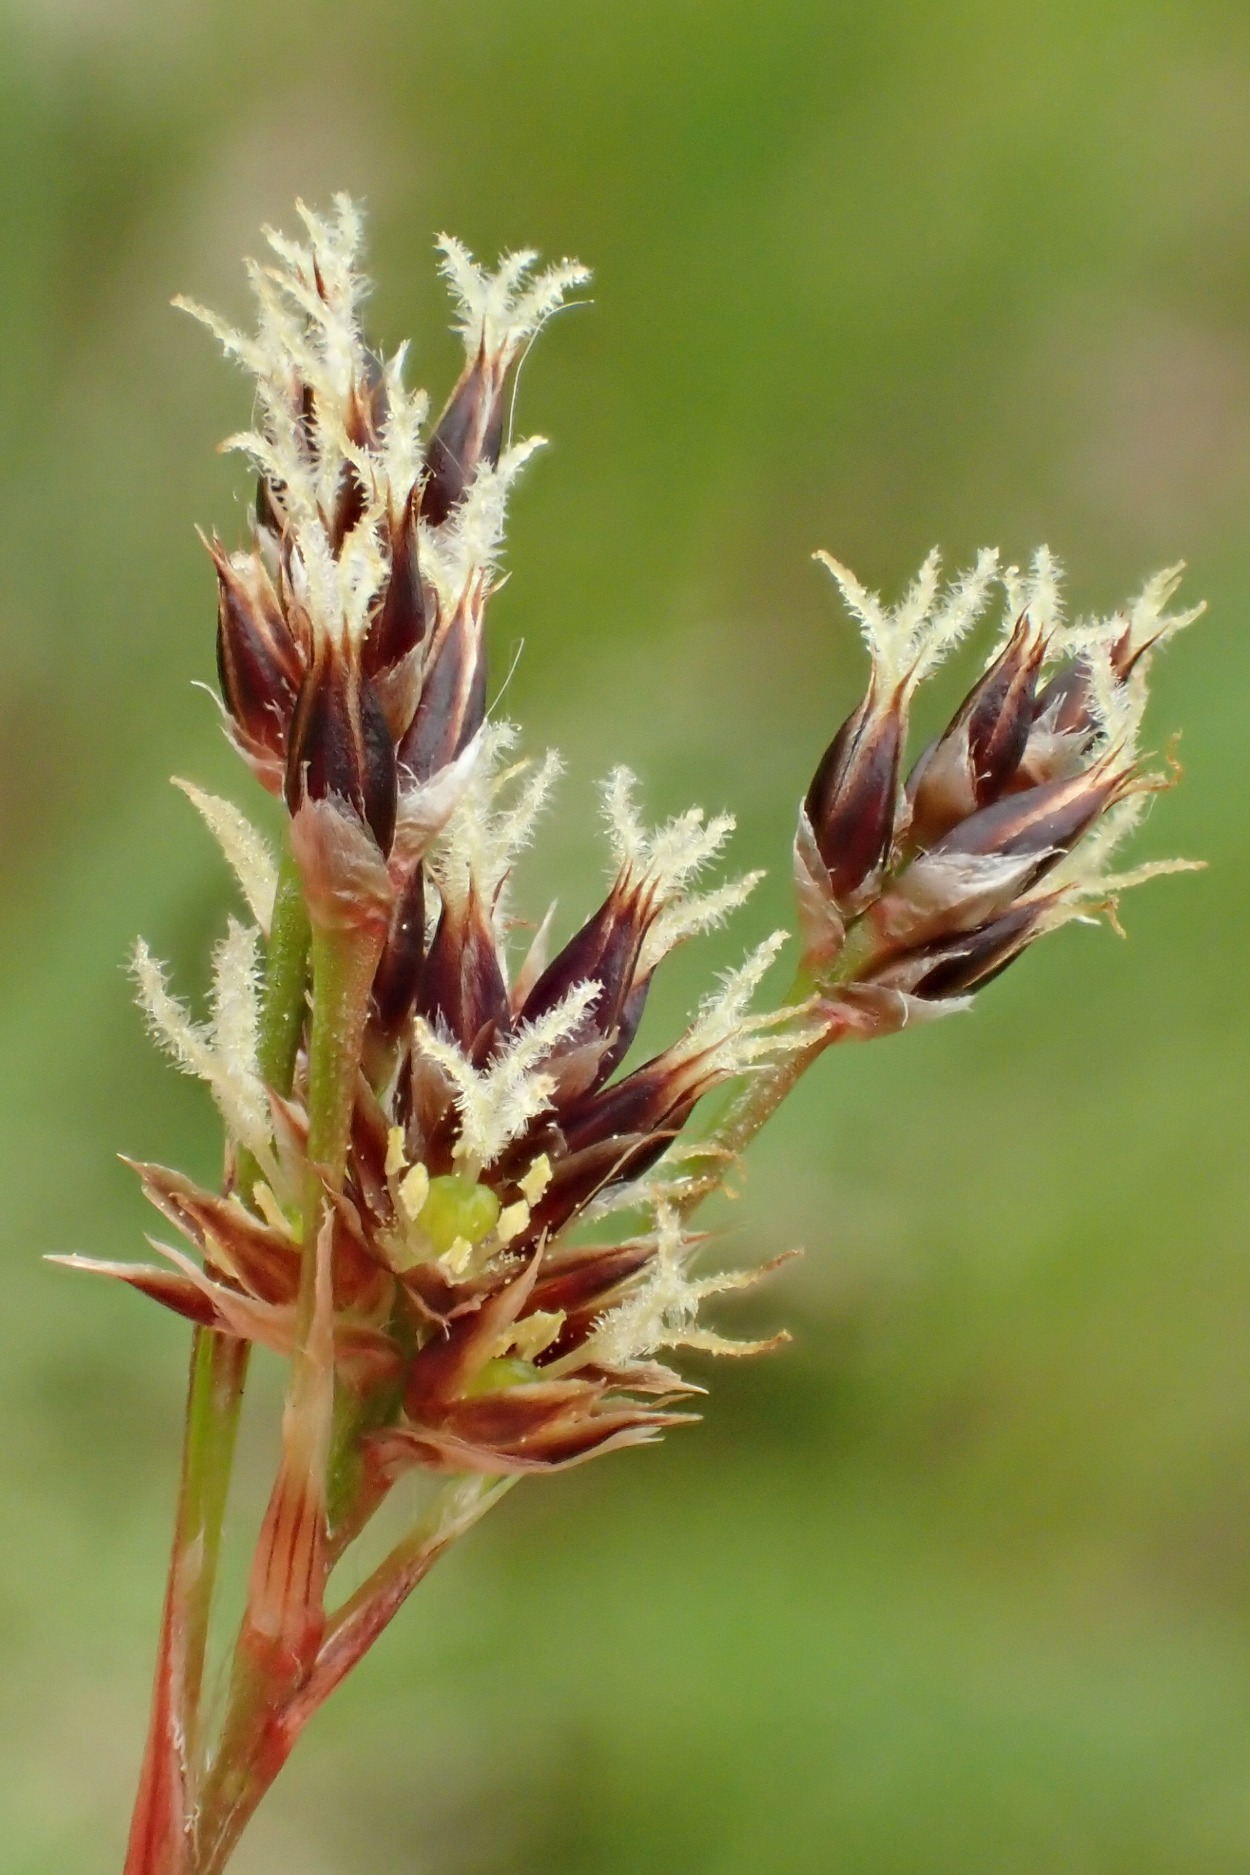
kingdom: Plantae
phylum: Tracheophyta
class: Liliopsida
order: Poales
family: Juncaceae
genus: Luzula
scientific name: Luzula multiflora
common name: Mangeblomstret frytle
